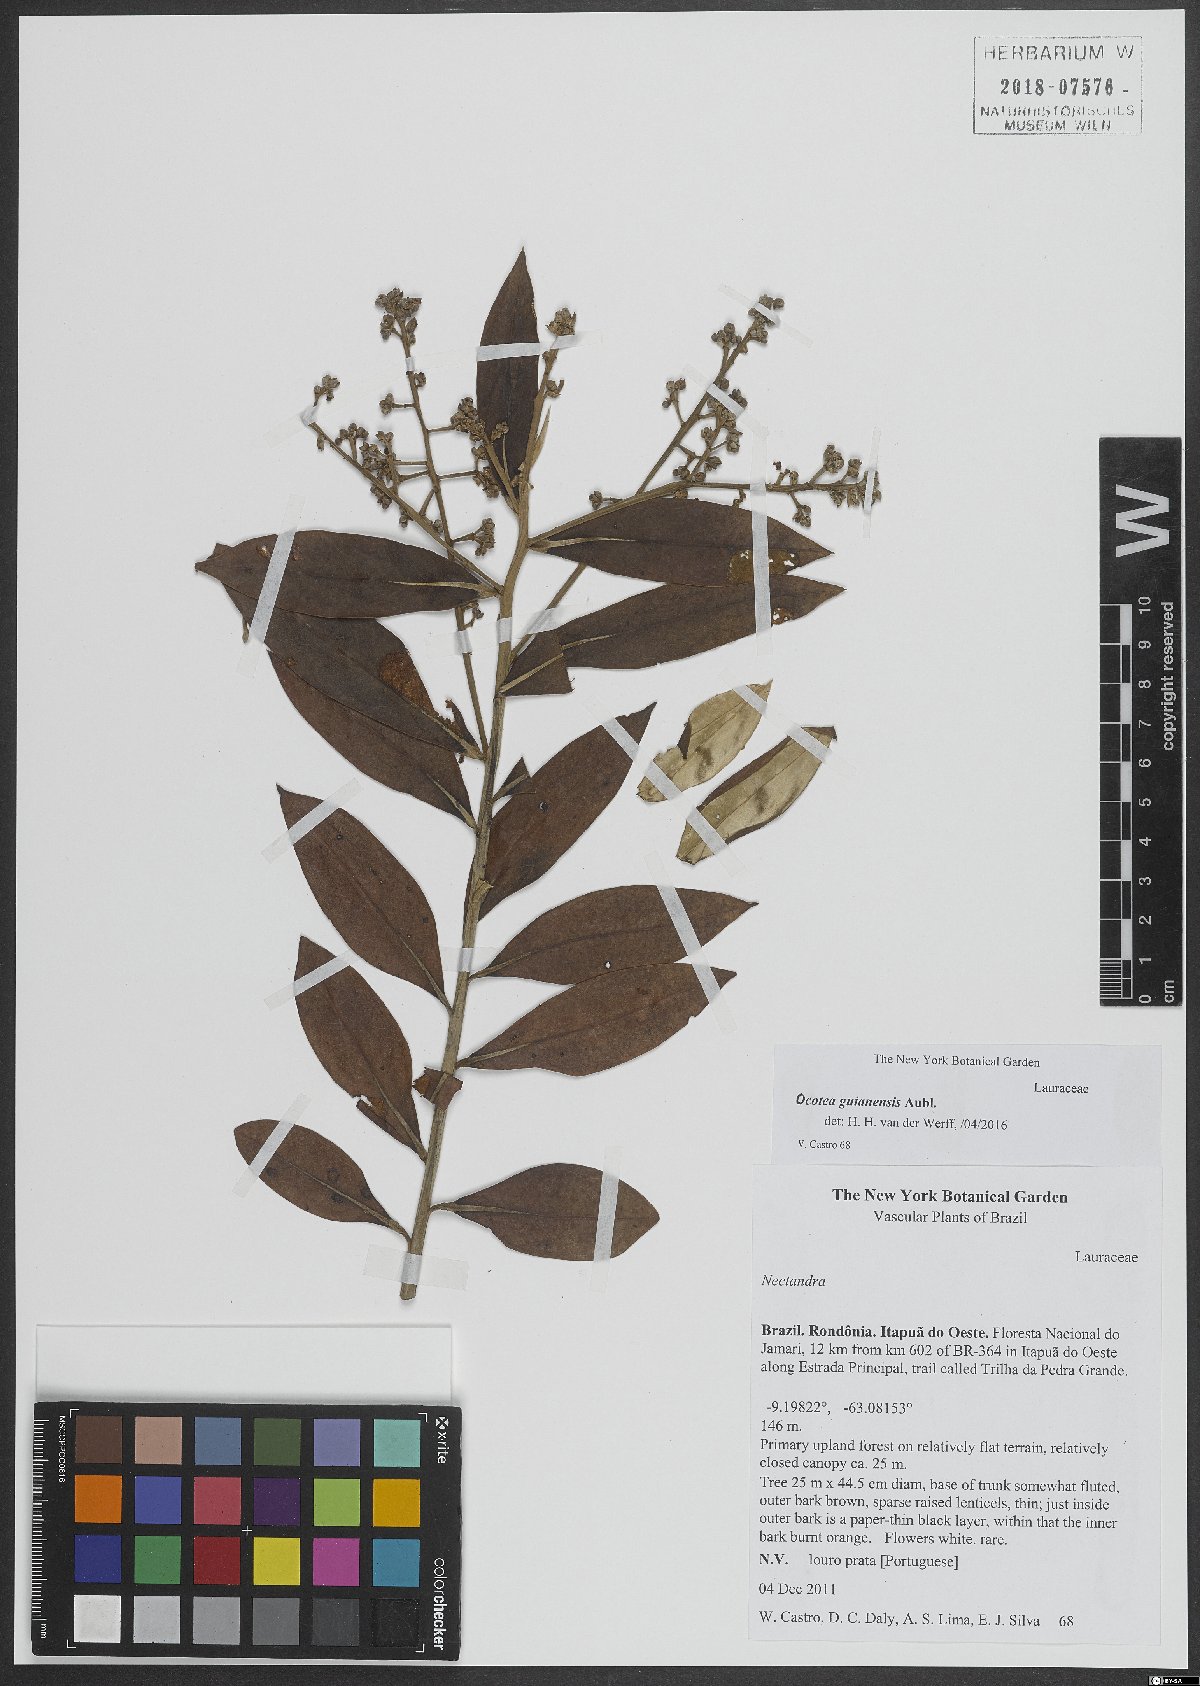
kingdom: Plantae
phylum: Tracheophyta
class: Magnoliopsida
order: Laurales
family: Lauraceae
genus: Ocotea
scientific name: Ocotea guianensis
